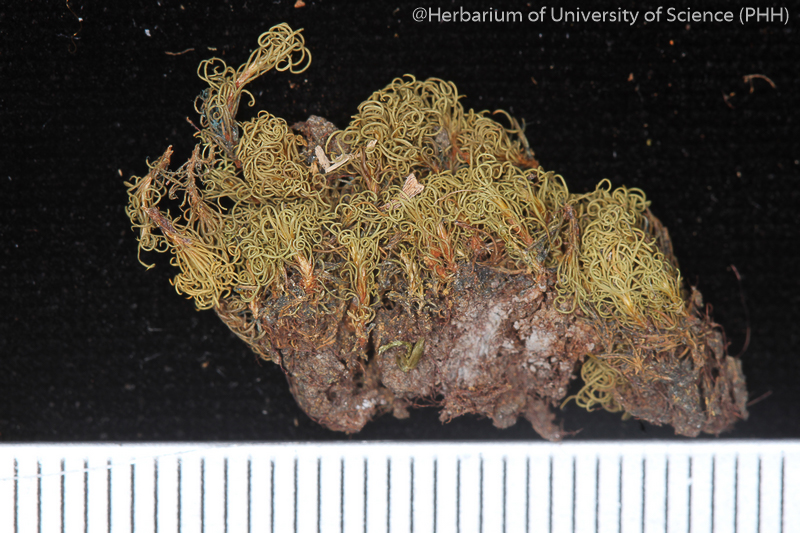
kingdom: Plantae
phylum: Bryophyta
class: Bryopsida
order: Pottiales
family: Pottiaceae
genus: Pachyneuropsis
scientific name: Pachyneuropsis perinvoluta
